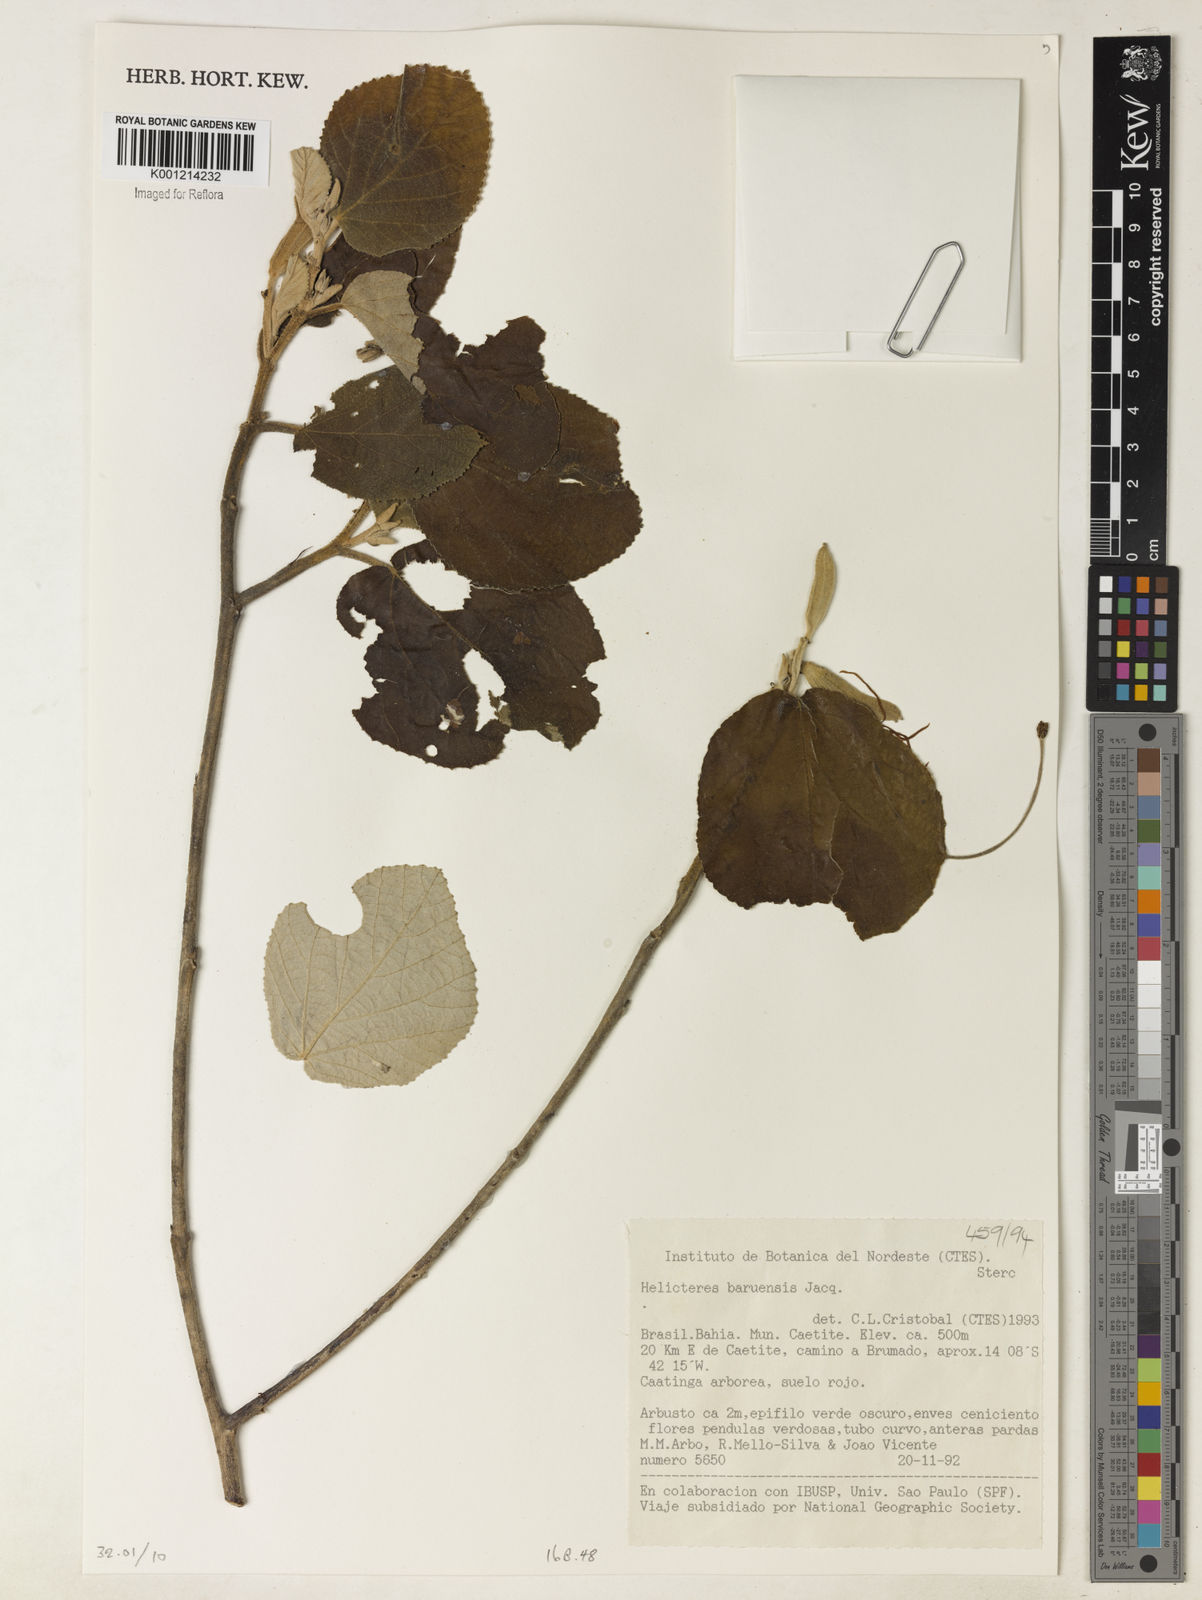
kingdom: Plantae
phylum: Tracheophyta
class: Magnoliopsida
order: Malvales
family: Malvaceae
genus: Helicteres
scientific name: Helicteres baruensis
